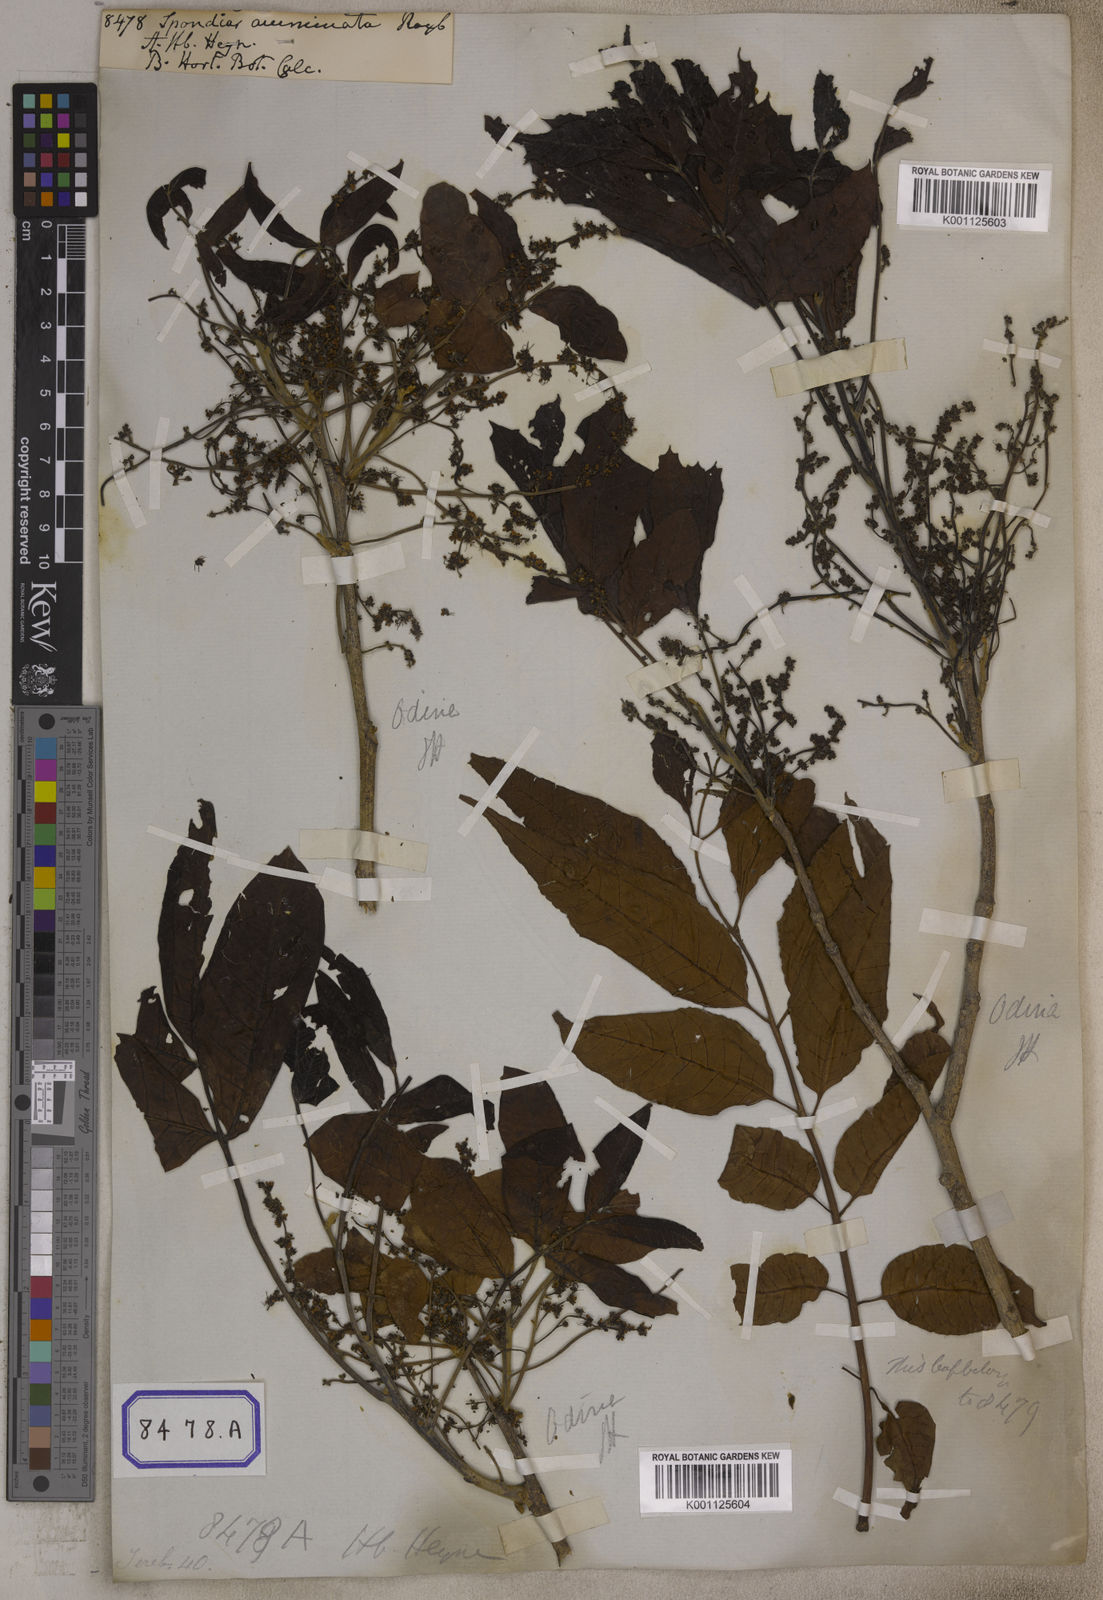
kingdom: Plantae
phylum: Tracheophyta
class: Magnoliopsida
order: Sapindales
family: Anacardiaceae
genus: Spondias
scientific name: Spondias pinnata
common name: Common hog-plum
